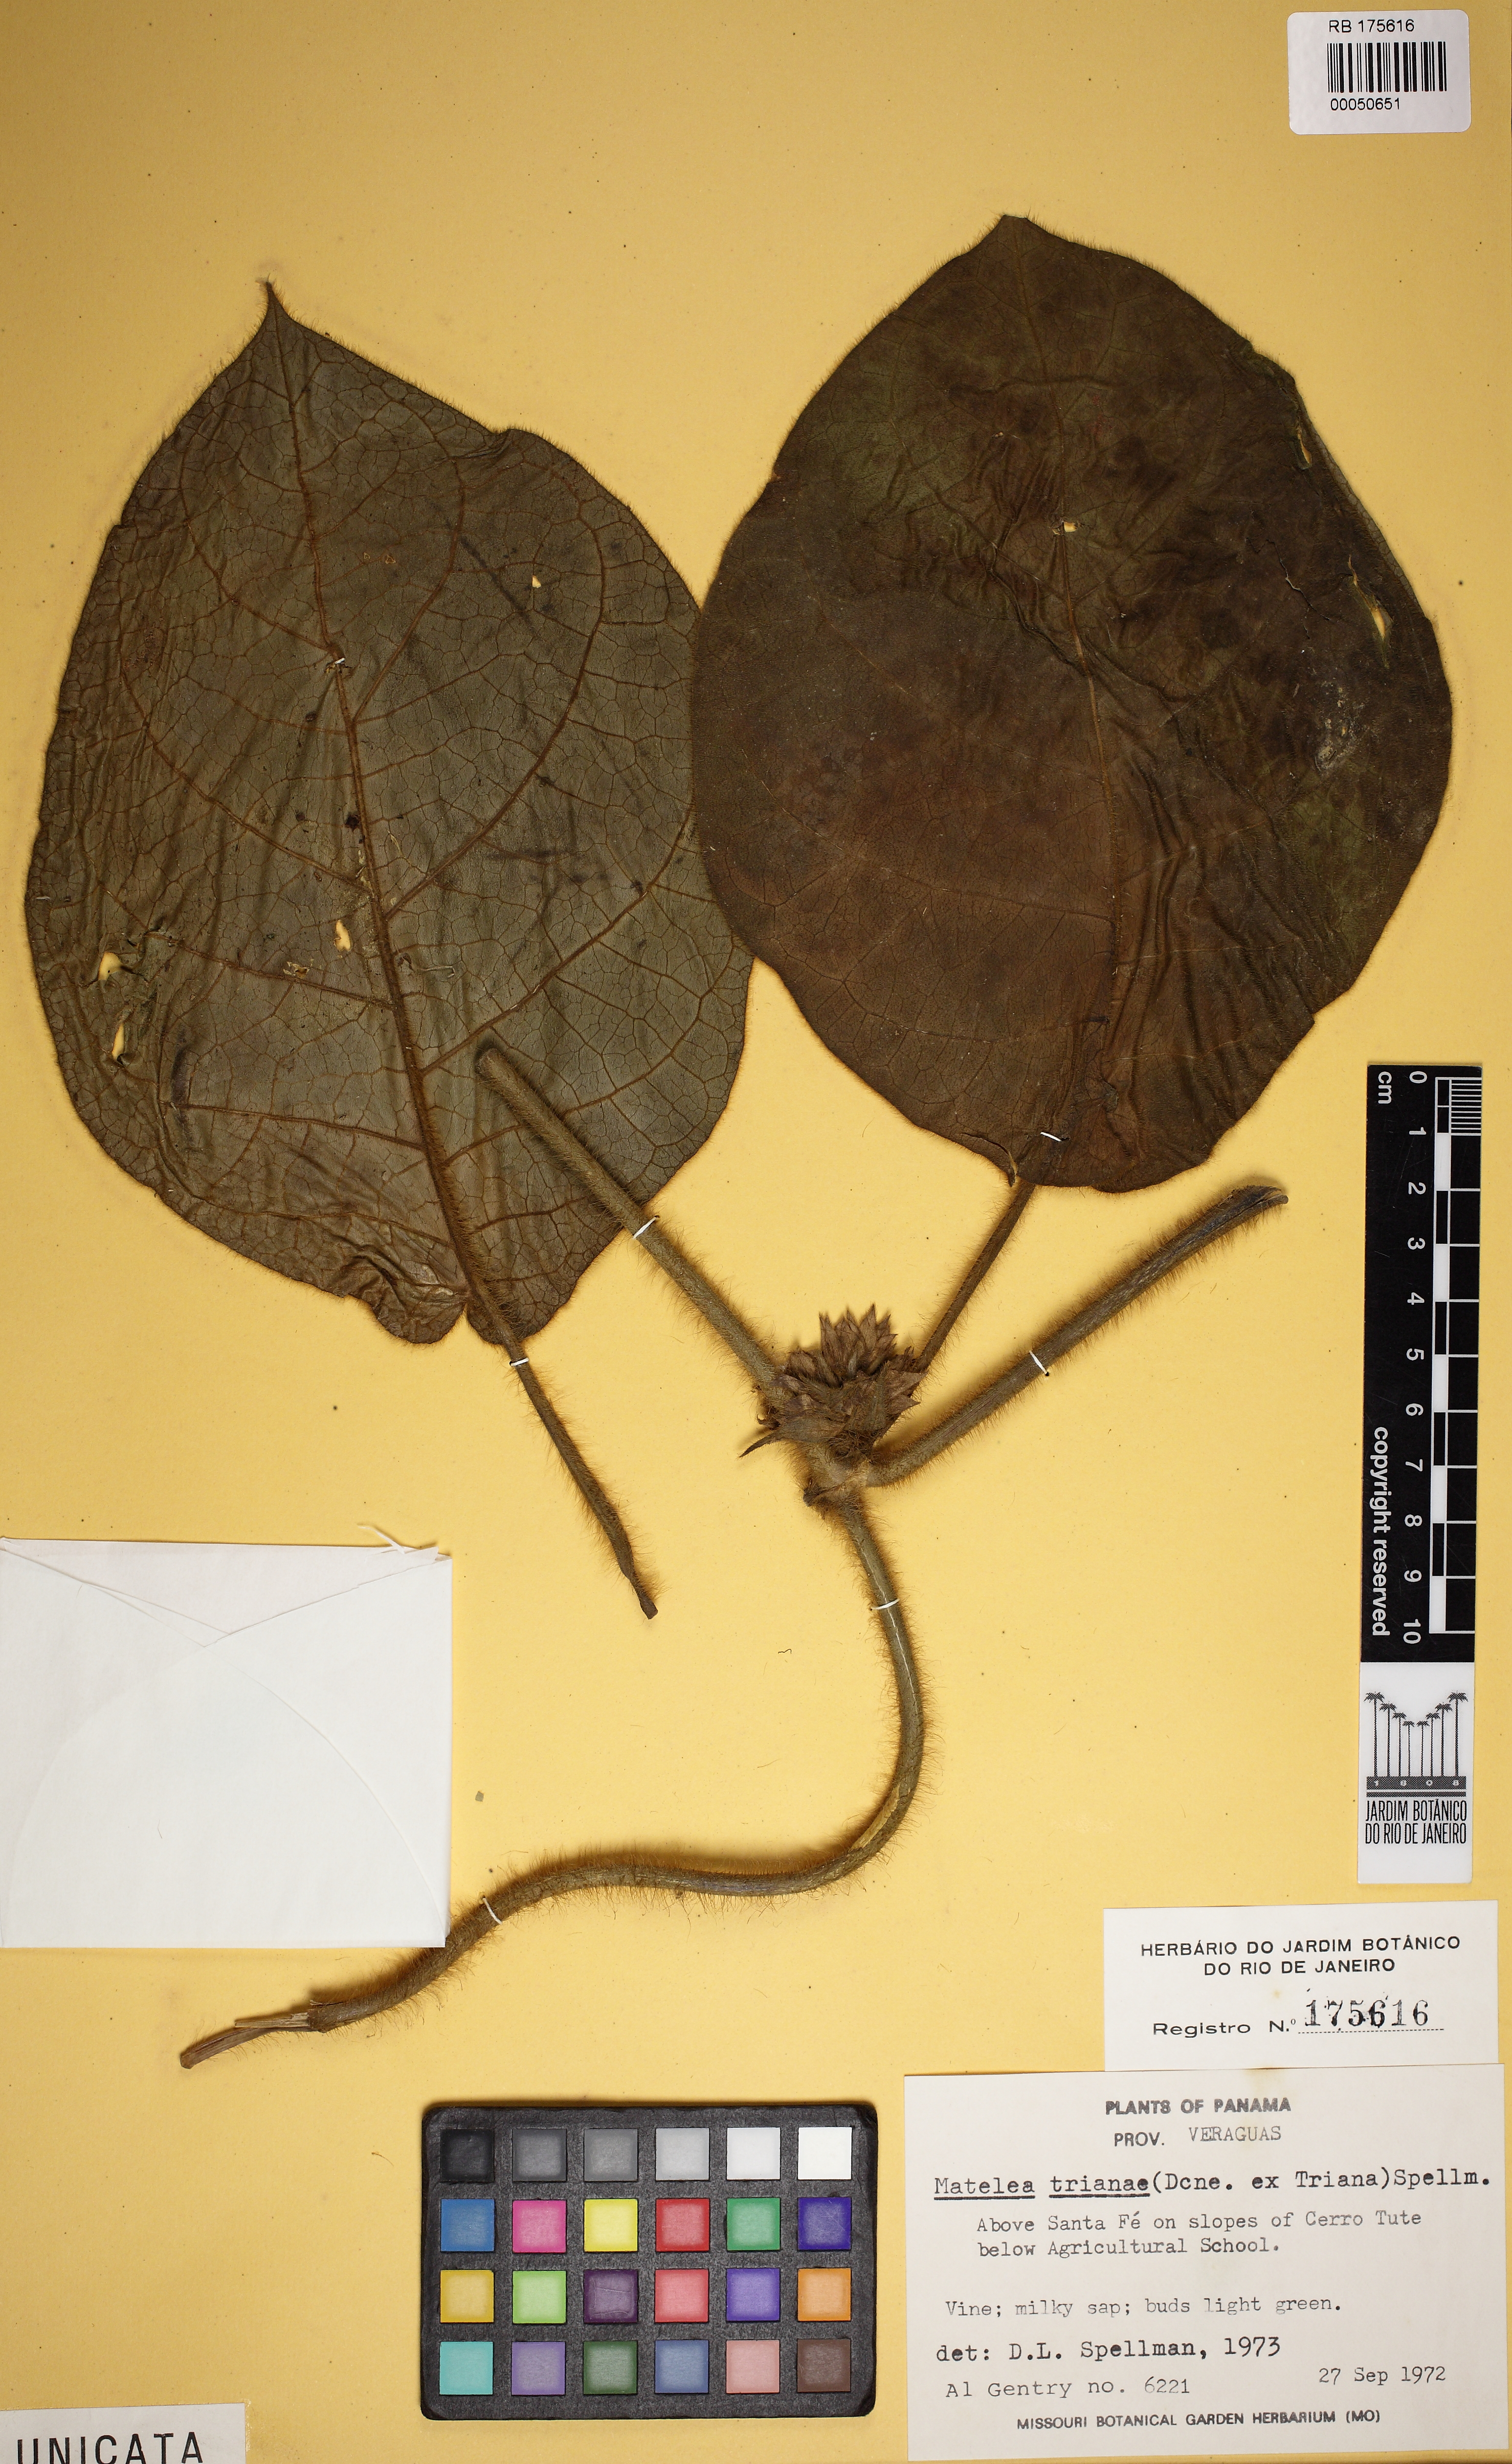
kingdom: Plantae
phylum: Tracheophyta
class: Magnoliopsida
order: Gentianales
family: Apocynaceae
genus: Macroscepis
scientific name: Macroscepis hirsuta
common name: Rattan
